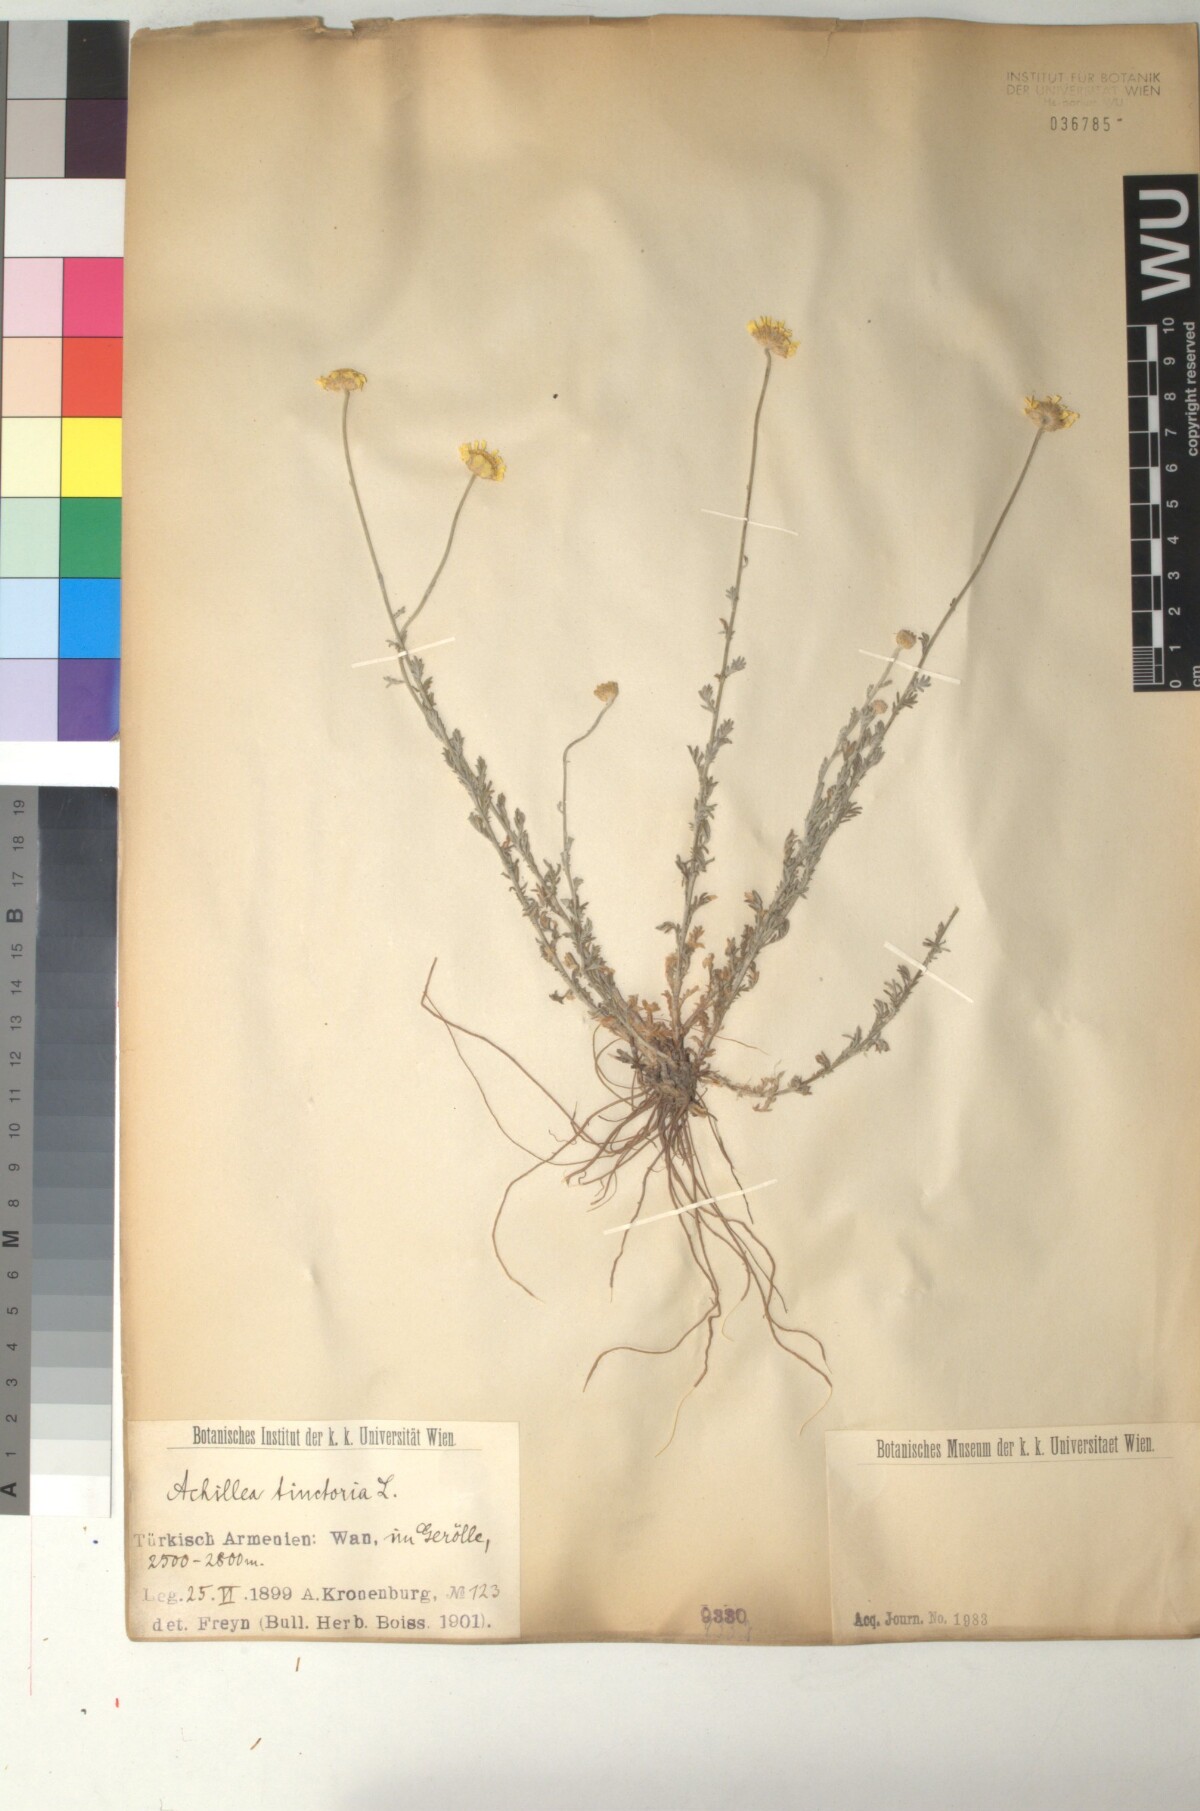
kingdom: Plantae
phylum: Tracheophyta
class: Magnoliopsida
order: Asterales
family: Asteraceae
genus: Cota
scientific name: Cota tinctoria
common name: Golden chamomile
